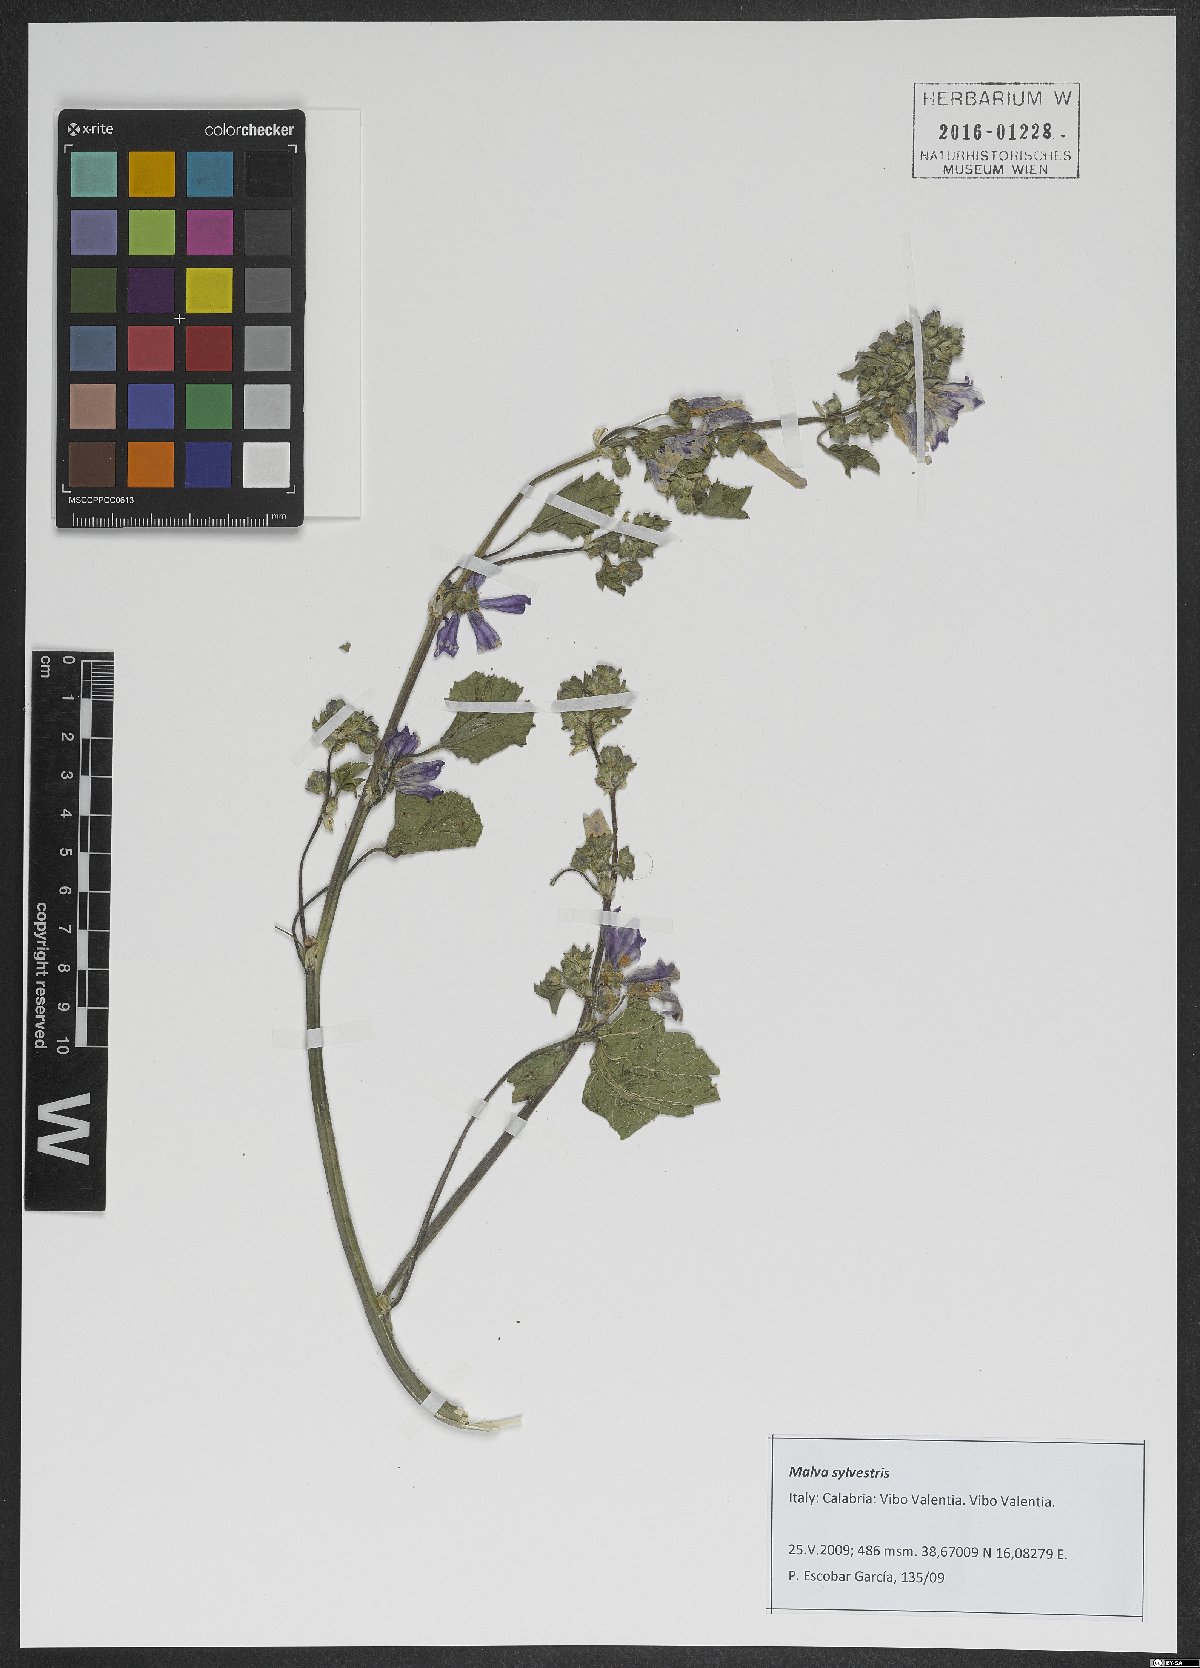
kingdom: Plantae
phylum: Tracheophyta
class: Magnoliopsida
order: Malvales
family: Malvaceae
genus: Malva
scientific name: Malva sylvestris
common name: Common mallow
